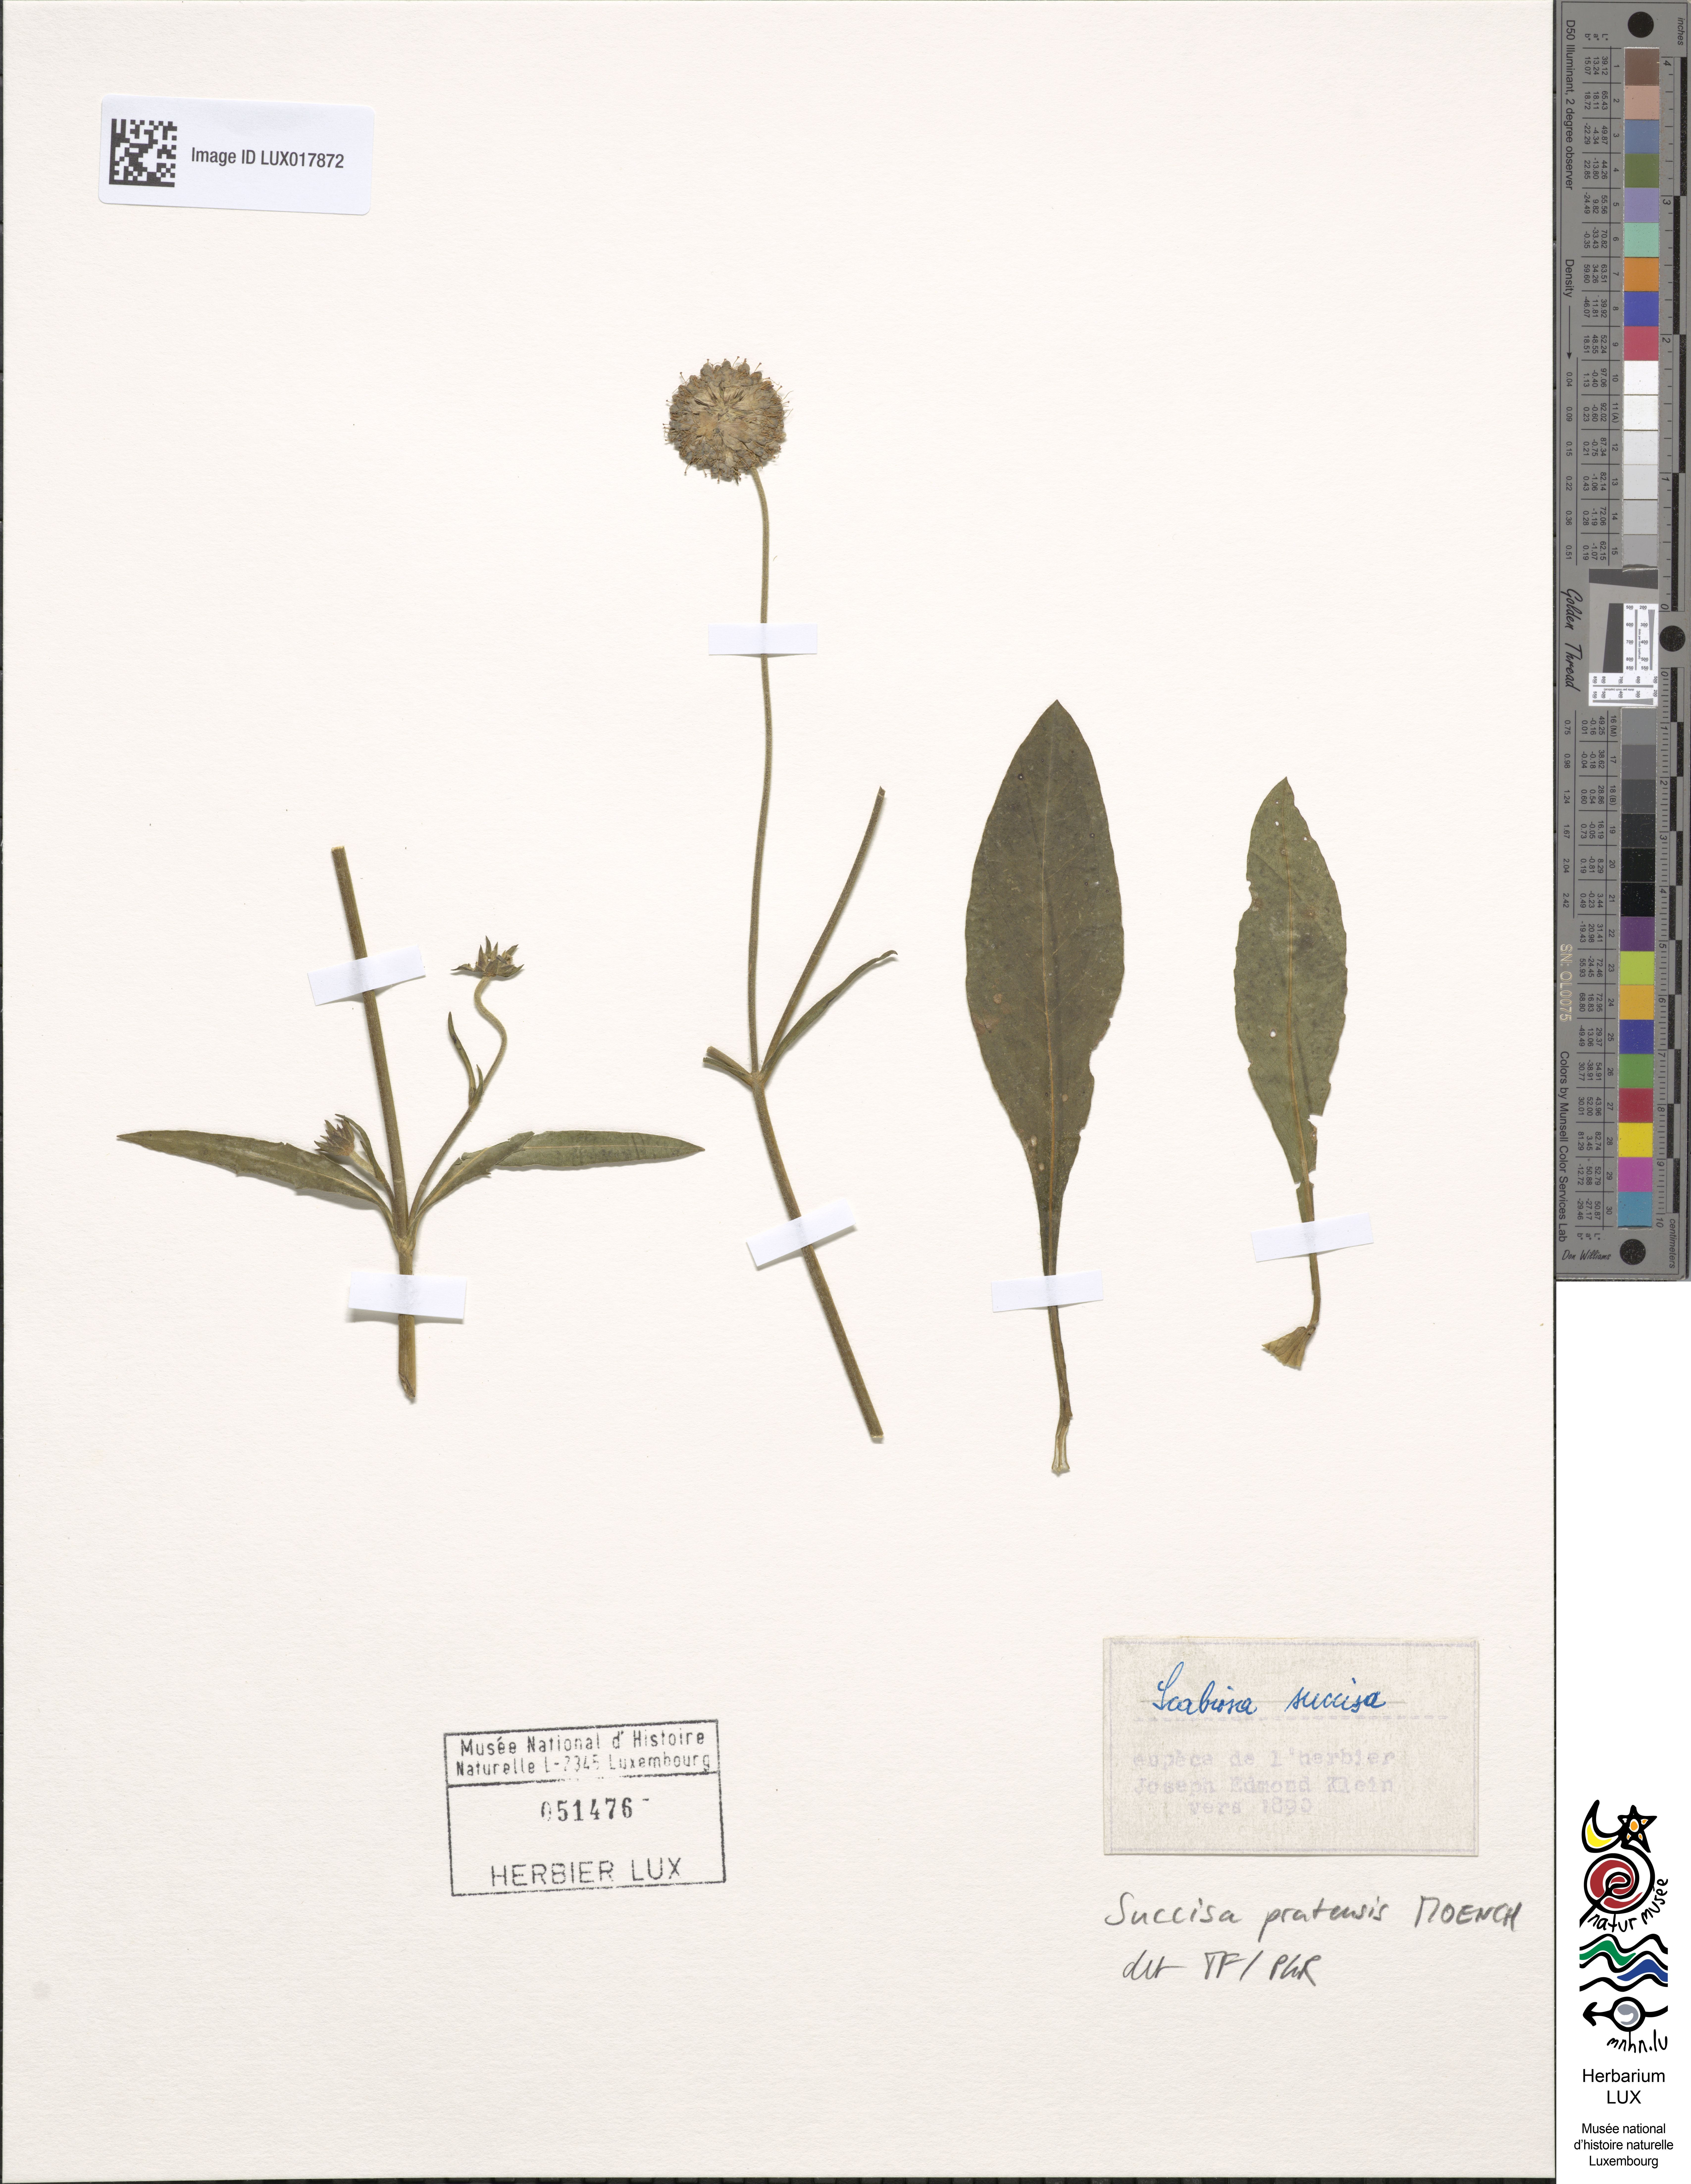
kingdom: Plantae
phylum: Tracheophyta
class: Magnoliopsida
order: Dipsacales
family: Caprifoliaceae
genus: Succisa
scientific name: Succisa pratensis
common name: Devil's-bit
